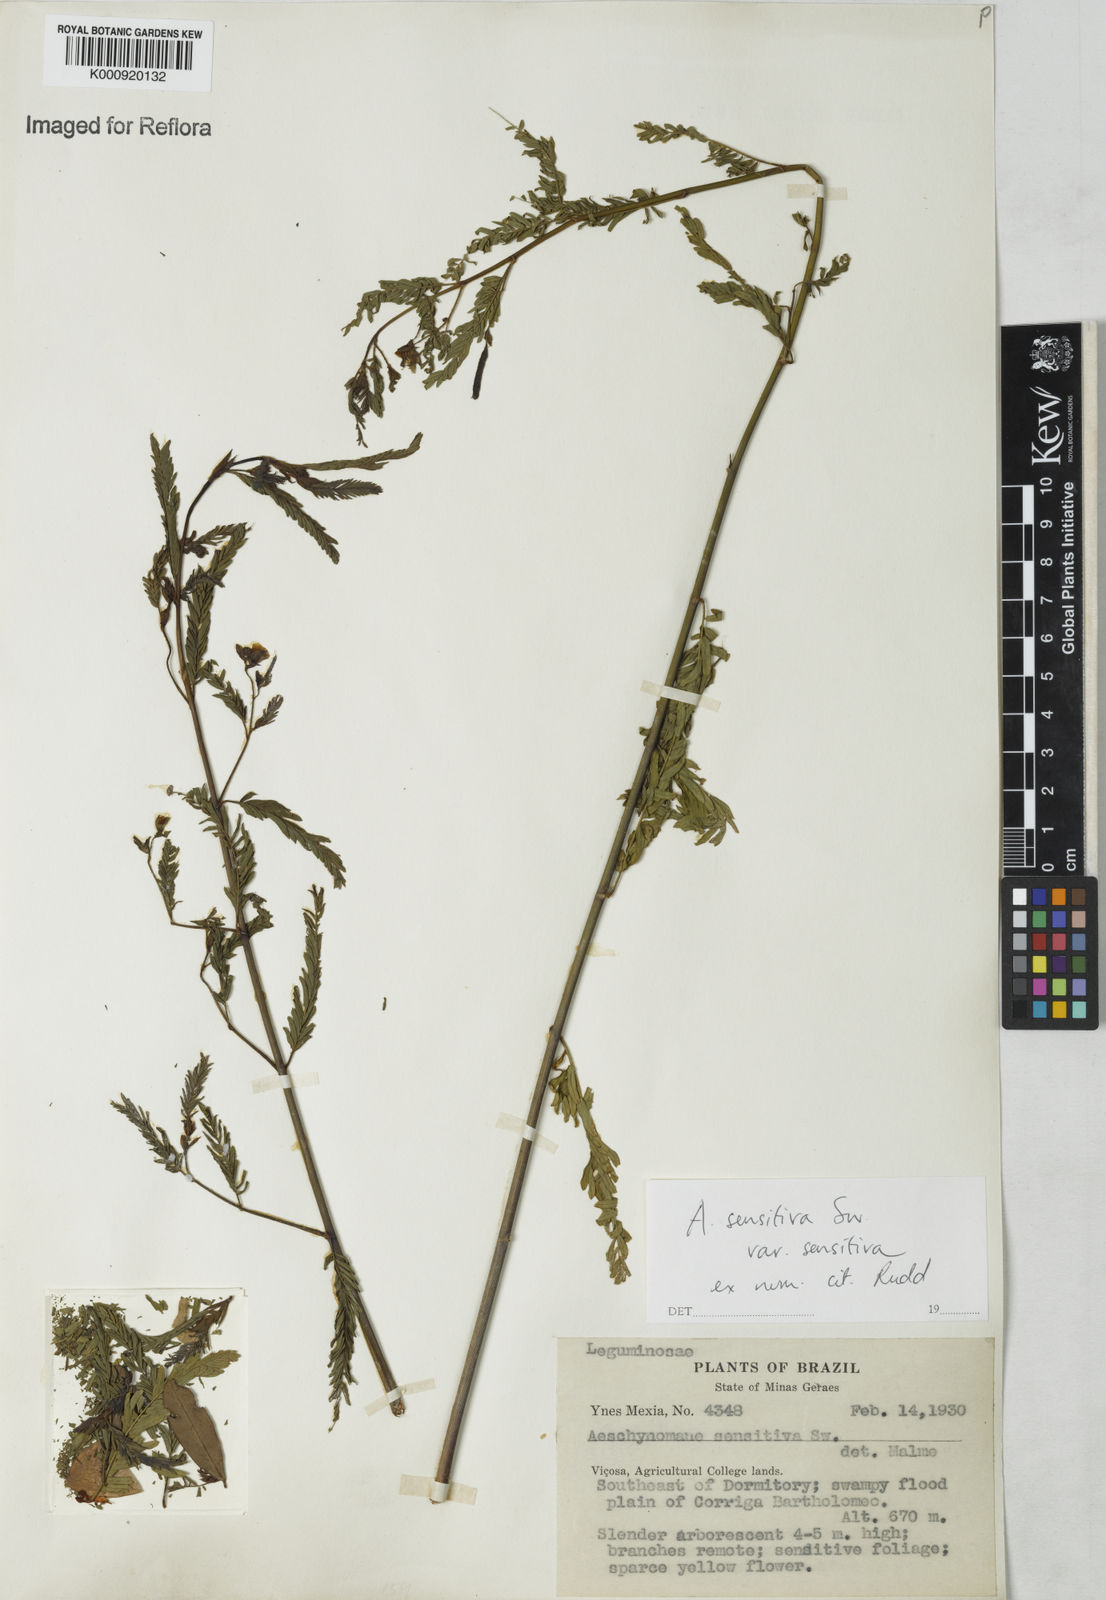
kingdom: Plantae
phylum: Tracheophyta
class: Magnoliopsida
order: Fabales
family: Fabaceae
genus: Aeschynomene
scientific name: Aeschynomene sensitiva
